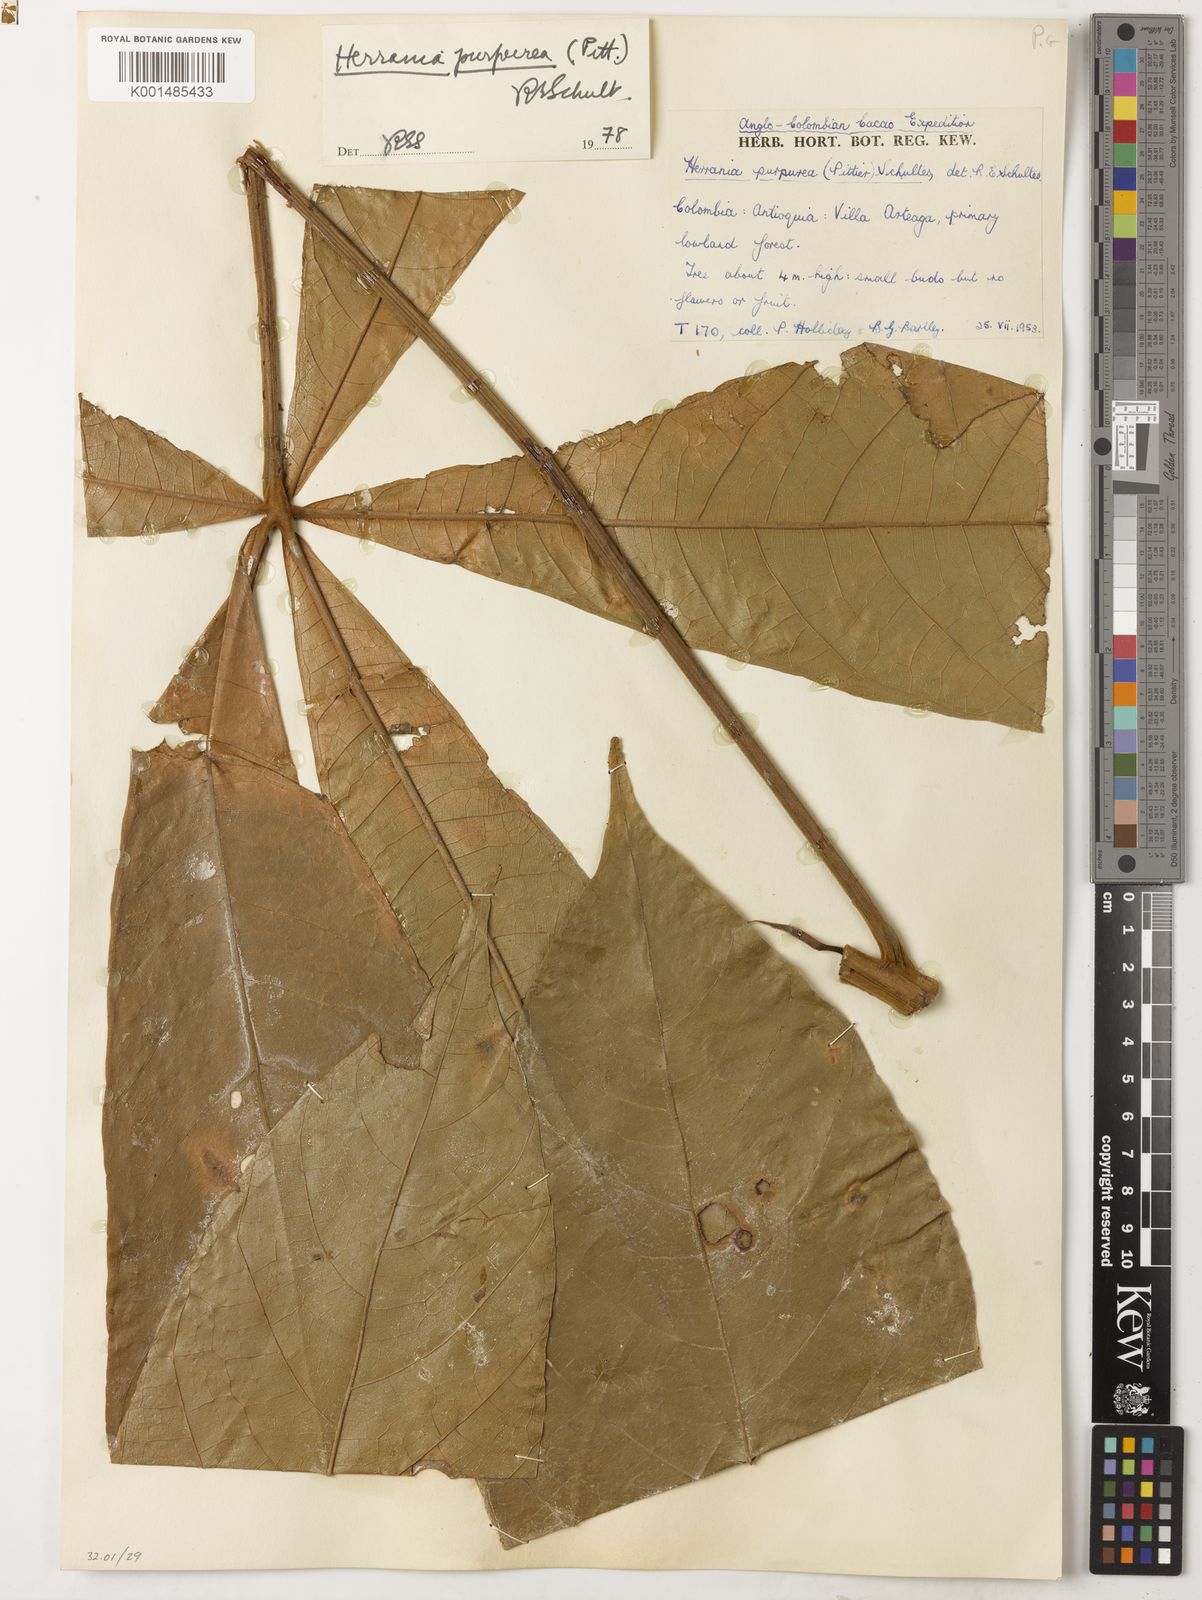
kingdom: Plantae
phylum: Tracheophyta
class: Magnoliopsida
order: Malvales
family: Malvaceae
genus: Herrania
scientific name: Herrania purpurea
